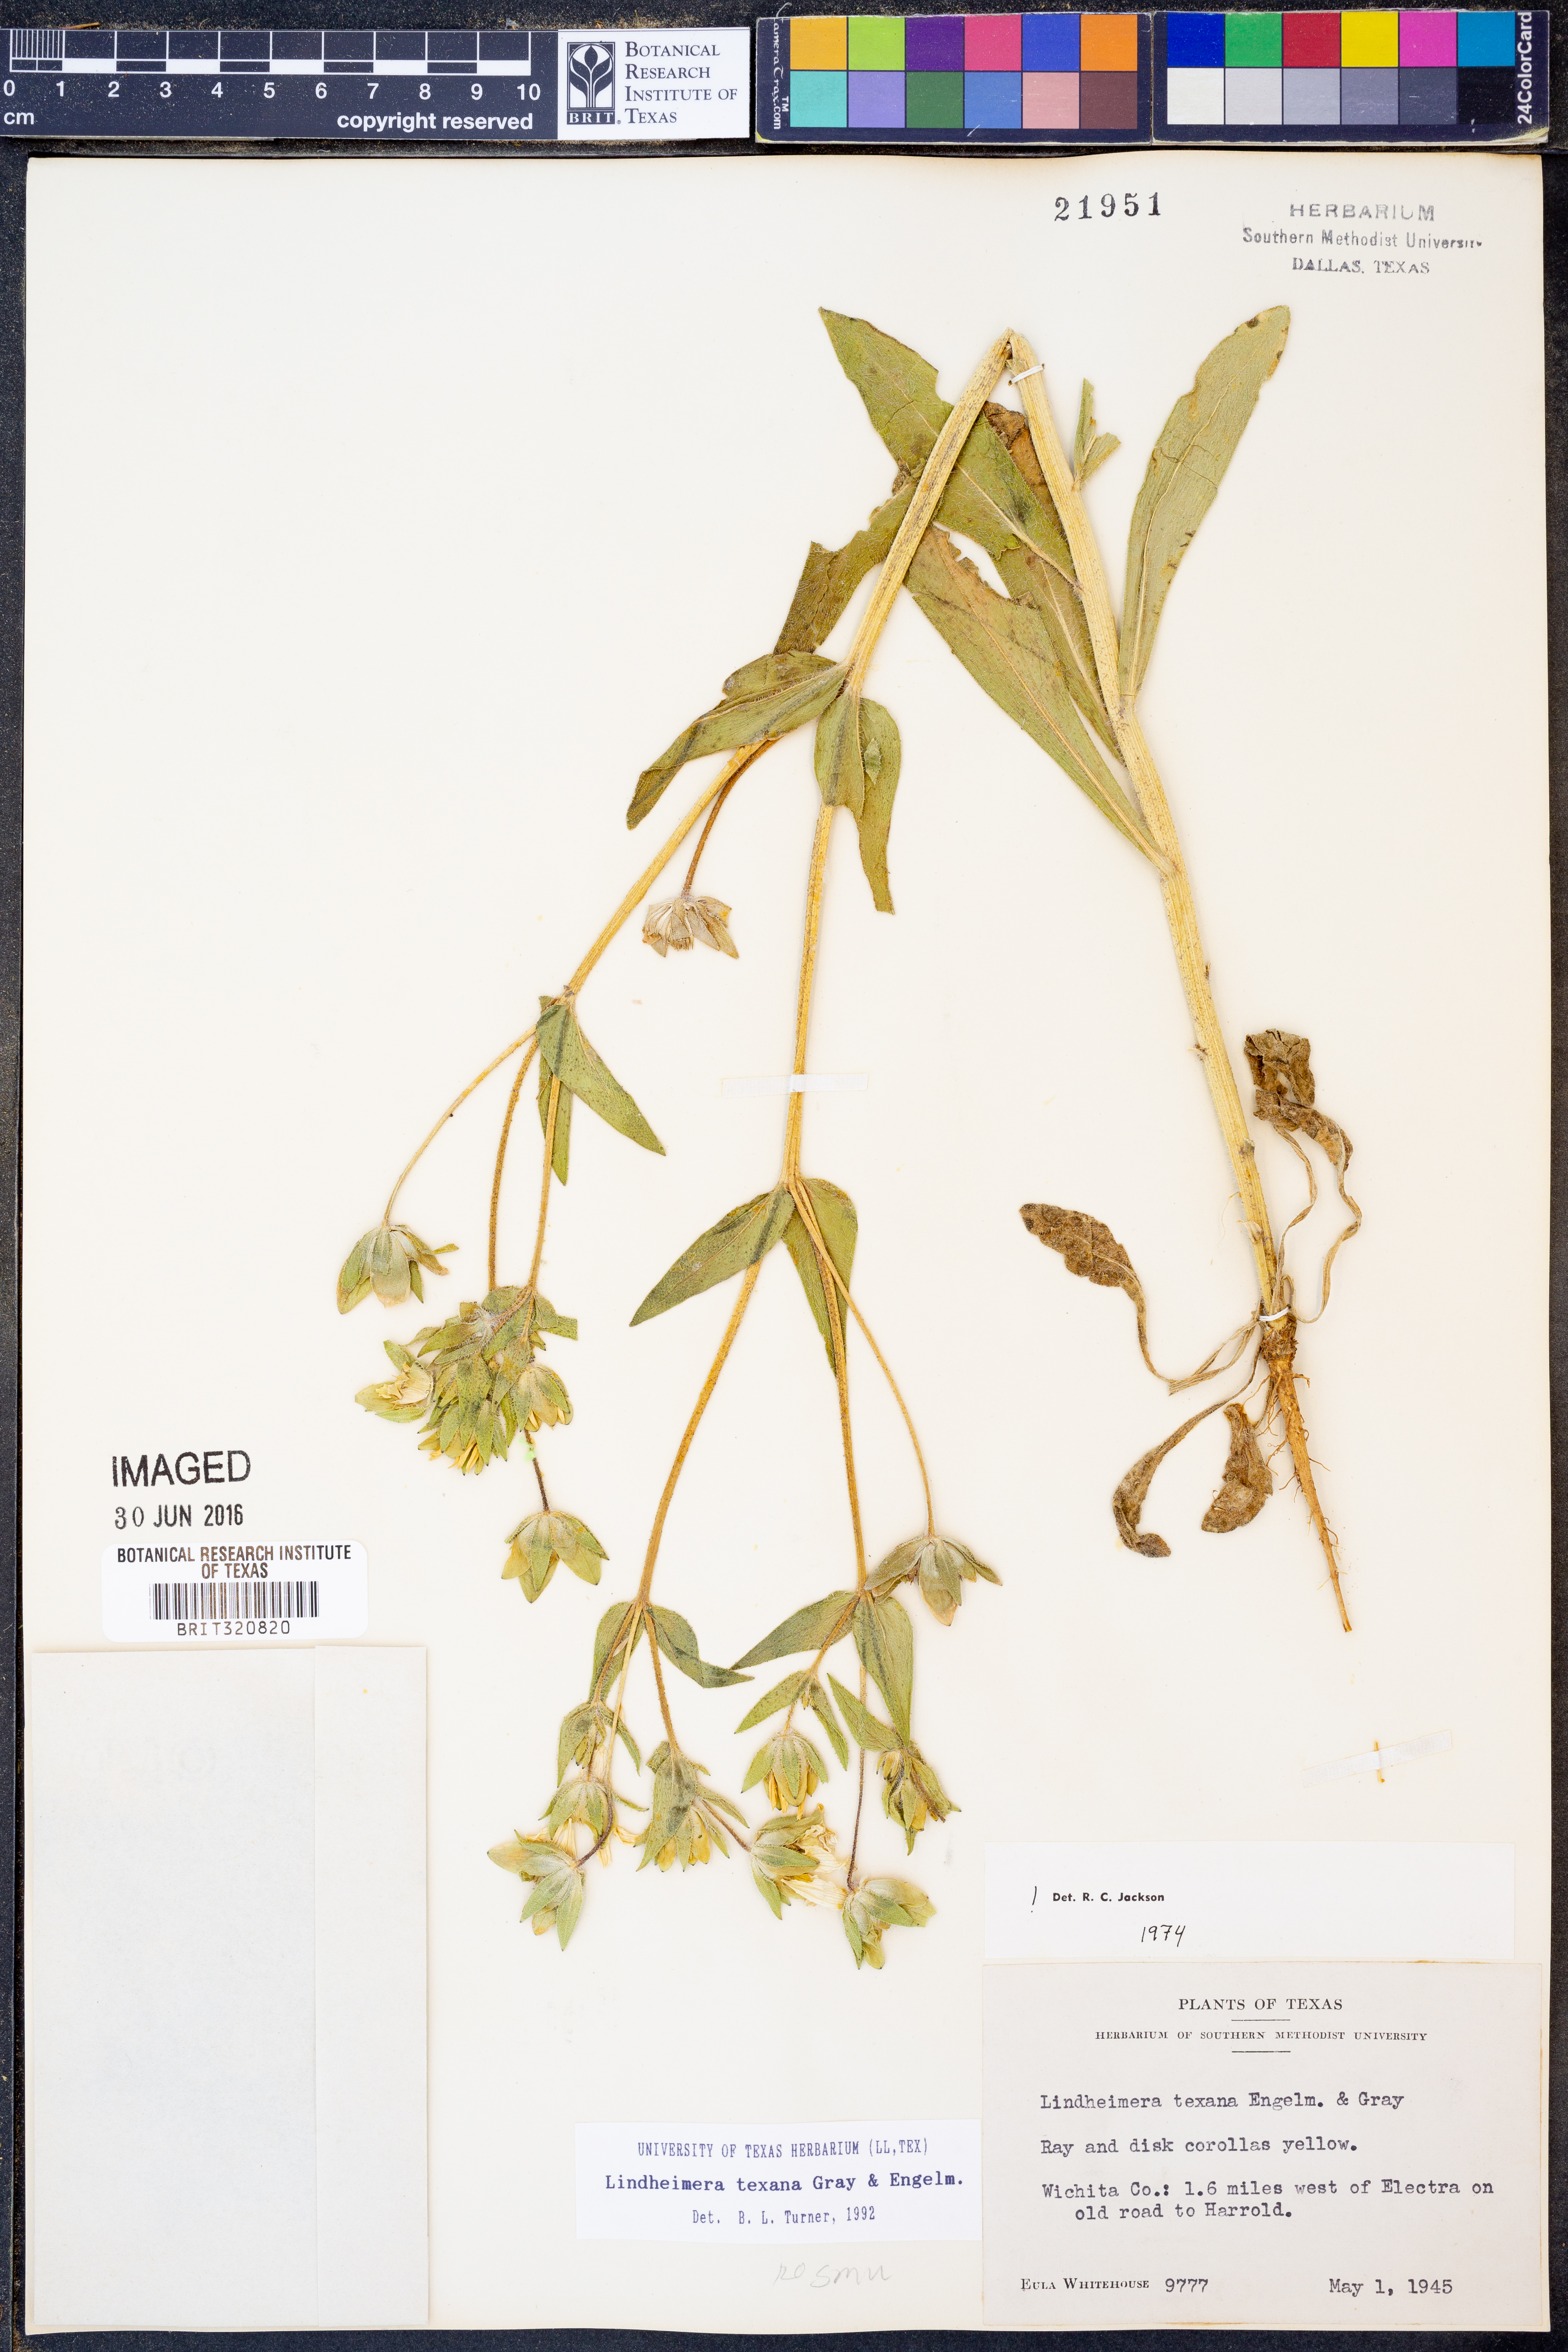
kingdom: Plantae
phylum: Tracheophyta
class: Magnoliopsida
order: Asterales
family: Asteraceae
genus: Lindheimera
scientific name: Lindheimera texana
